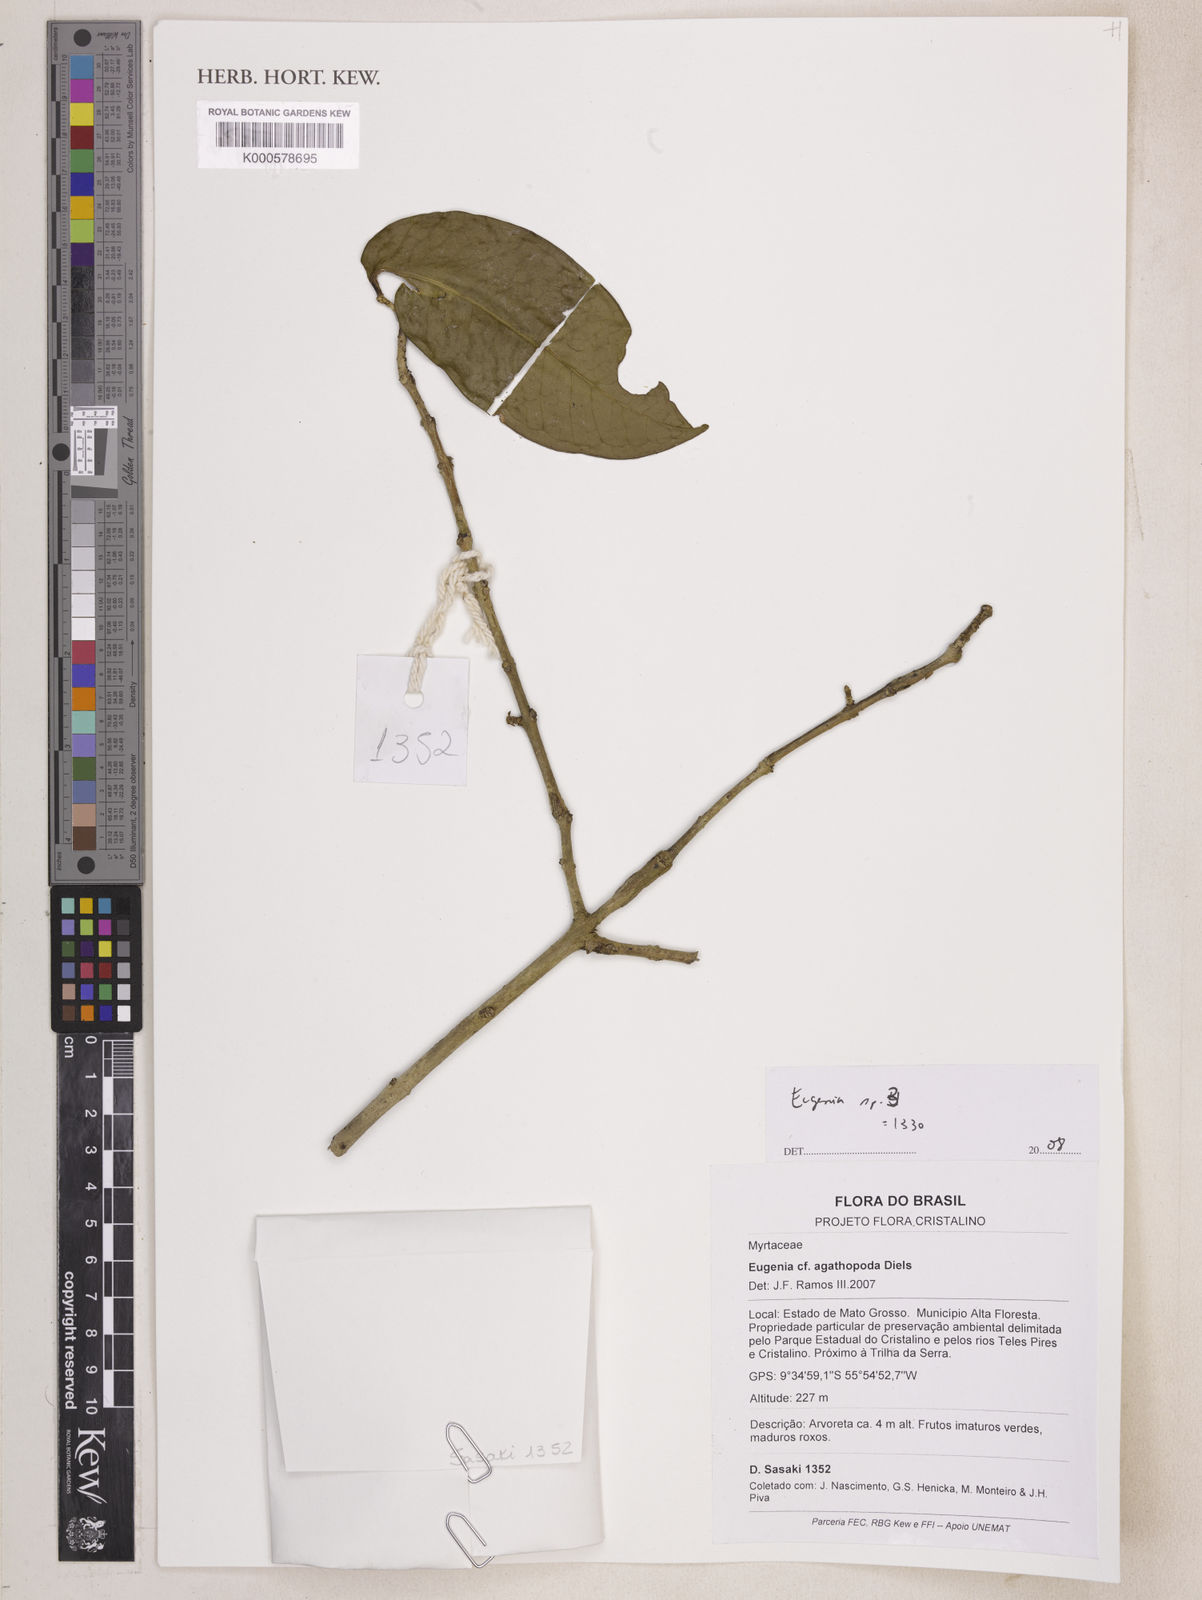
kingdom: Plantae
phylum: Tracheophyta
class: Magnoliopsida
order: Myrtales
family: Myrtaceae
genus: Eugenia
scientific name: Eugenia
